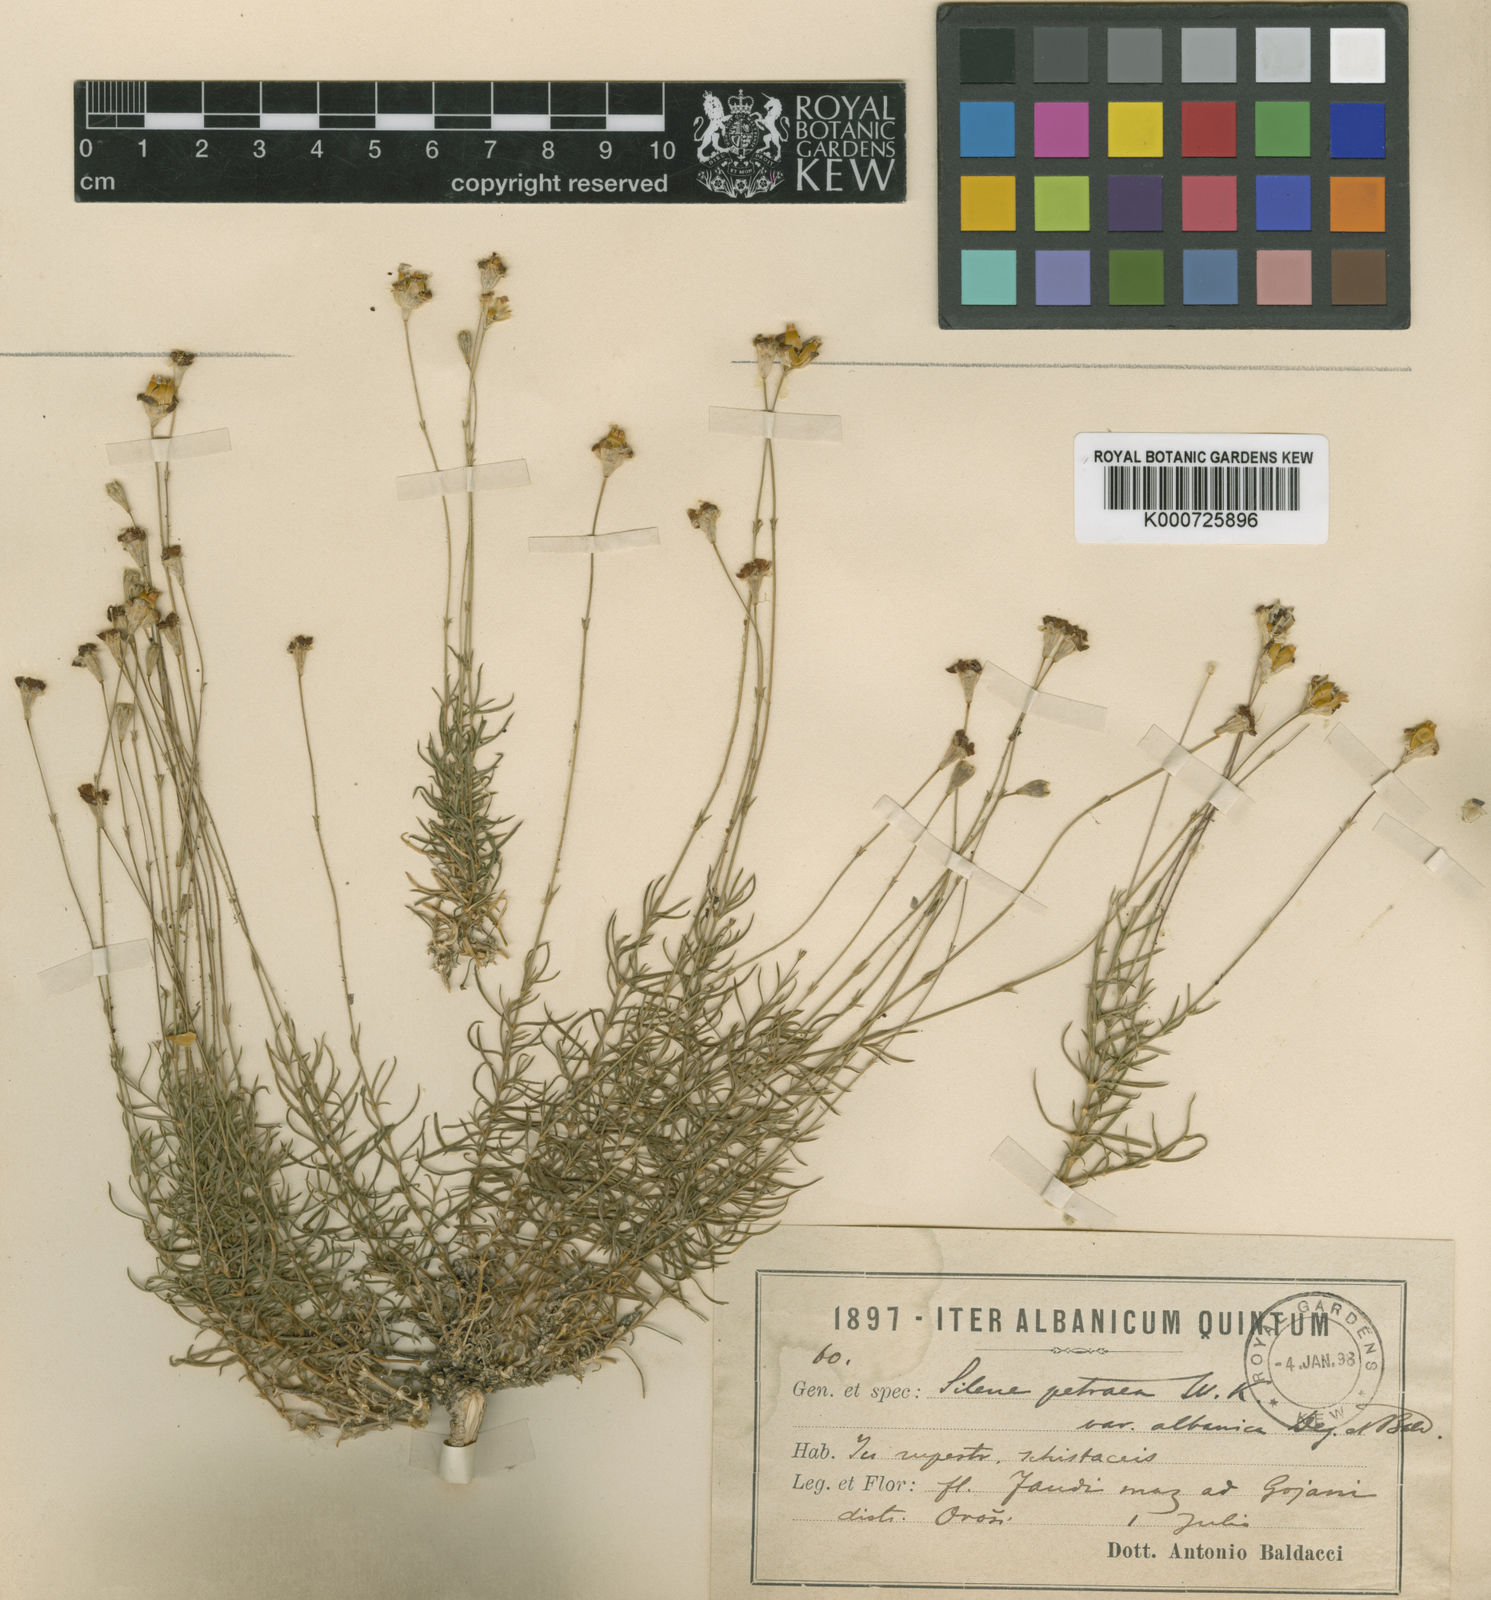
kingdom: Plantae
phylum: Tracheophyta
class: Magnoliopsida
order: Caryophyllales
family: Caryophyllaceae
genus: Silene
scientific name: Silene vallesia
